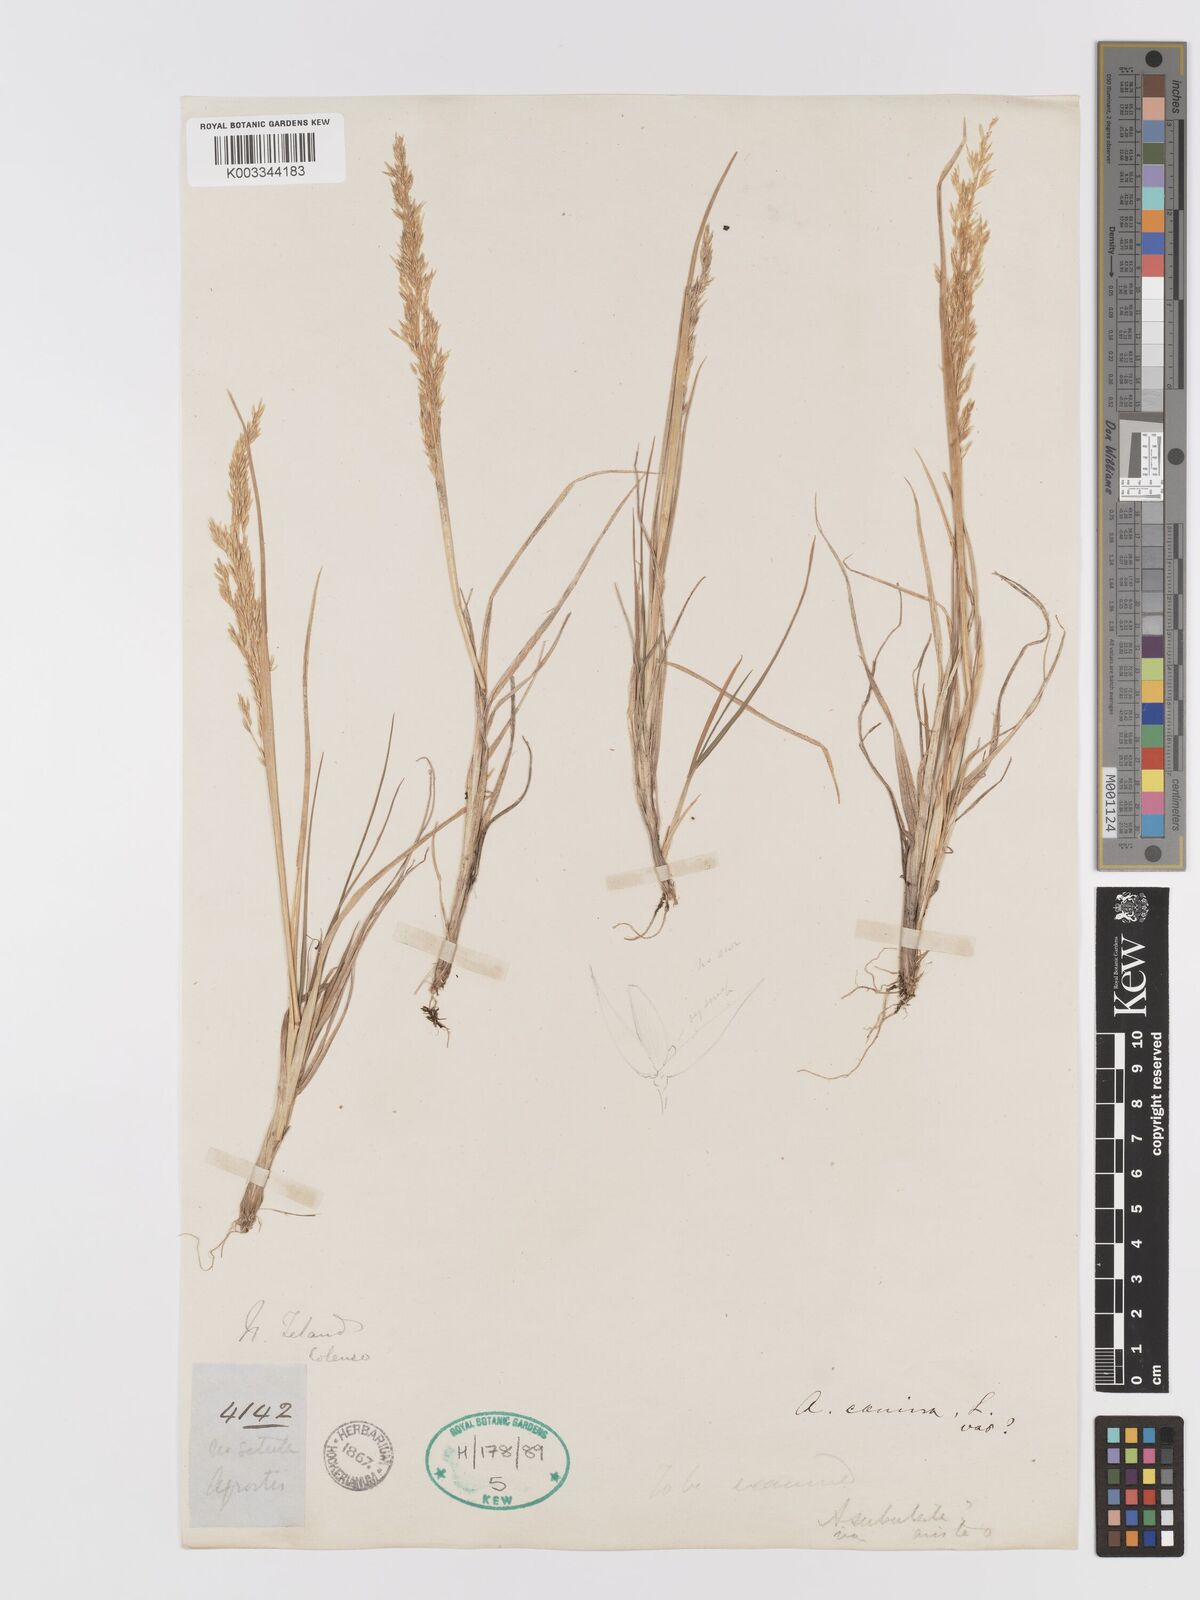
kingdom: Plantae
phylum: Tracheophyta
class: Liliopsida
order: Poales
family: Poaceae
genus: Agrostis
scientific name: Agrostis personata
